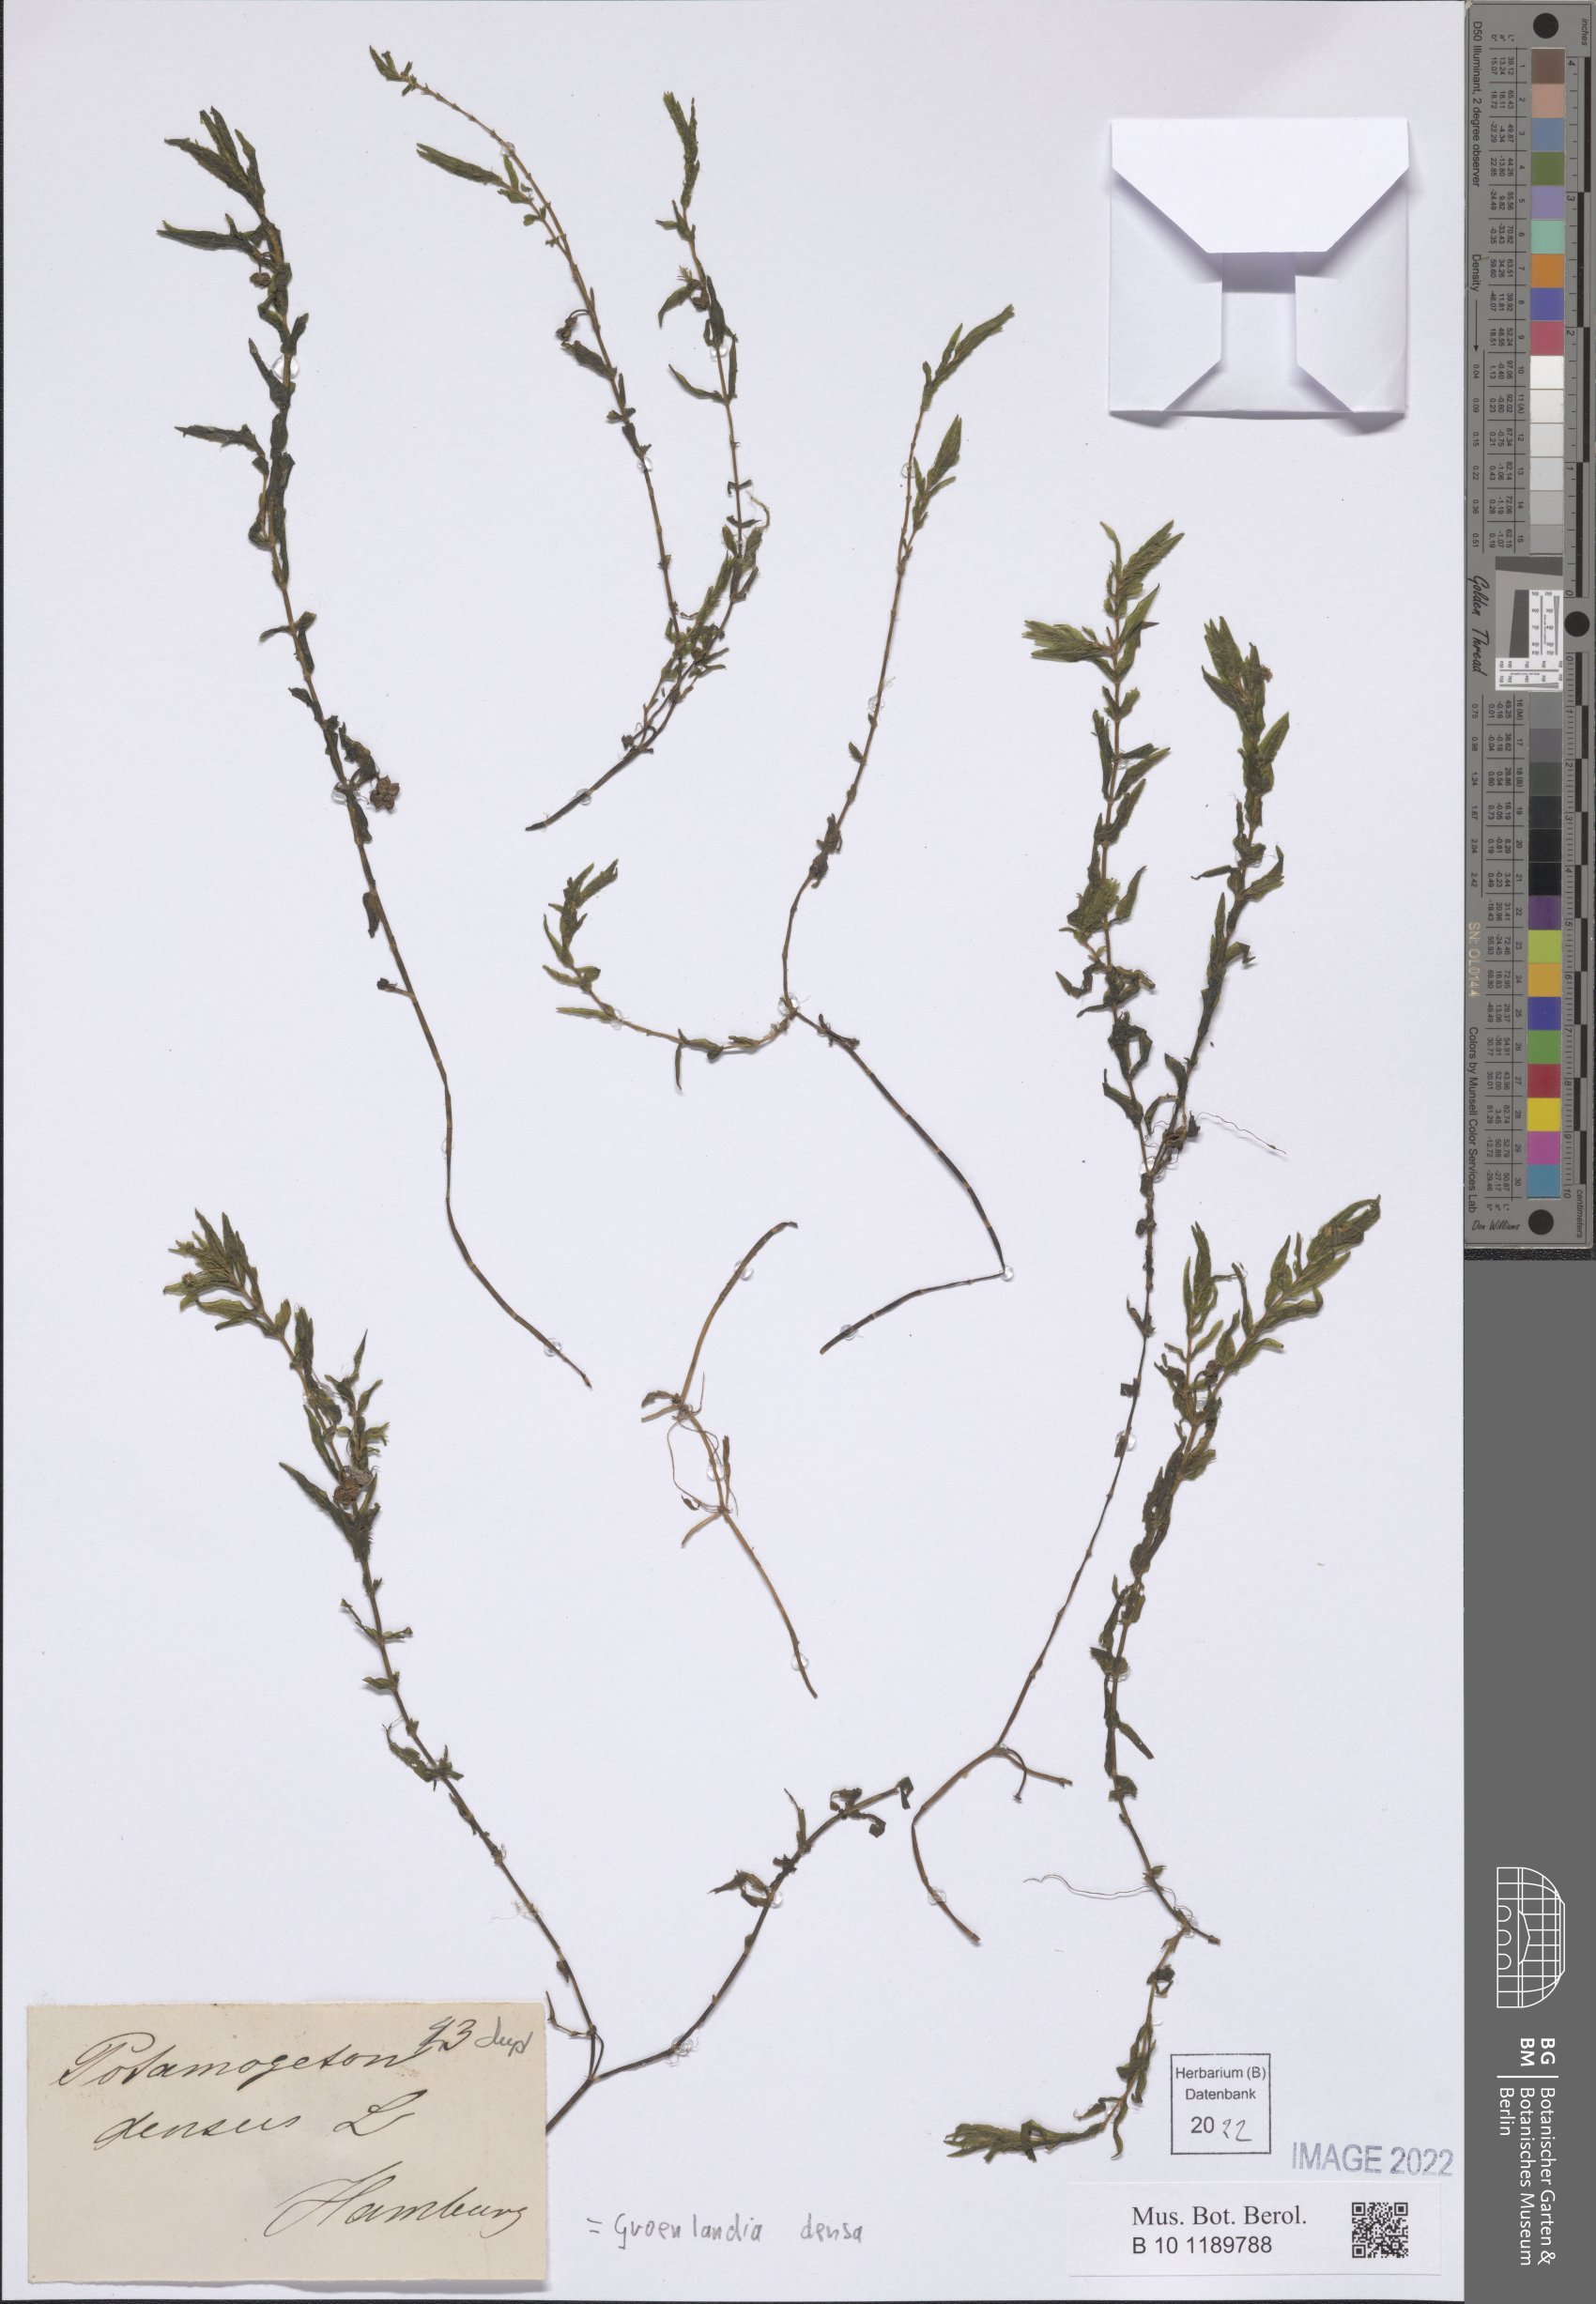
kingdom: Plantae
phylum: Tracheophyta
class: Liliopsida
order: Alismatales
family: Potamogetonaceae
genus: Groenlandia
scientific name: Groenlandia densa
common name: Opposite-leaved pondweed
